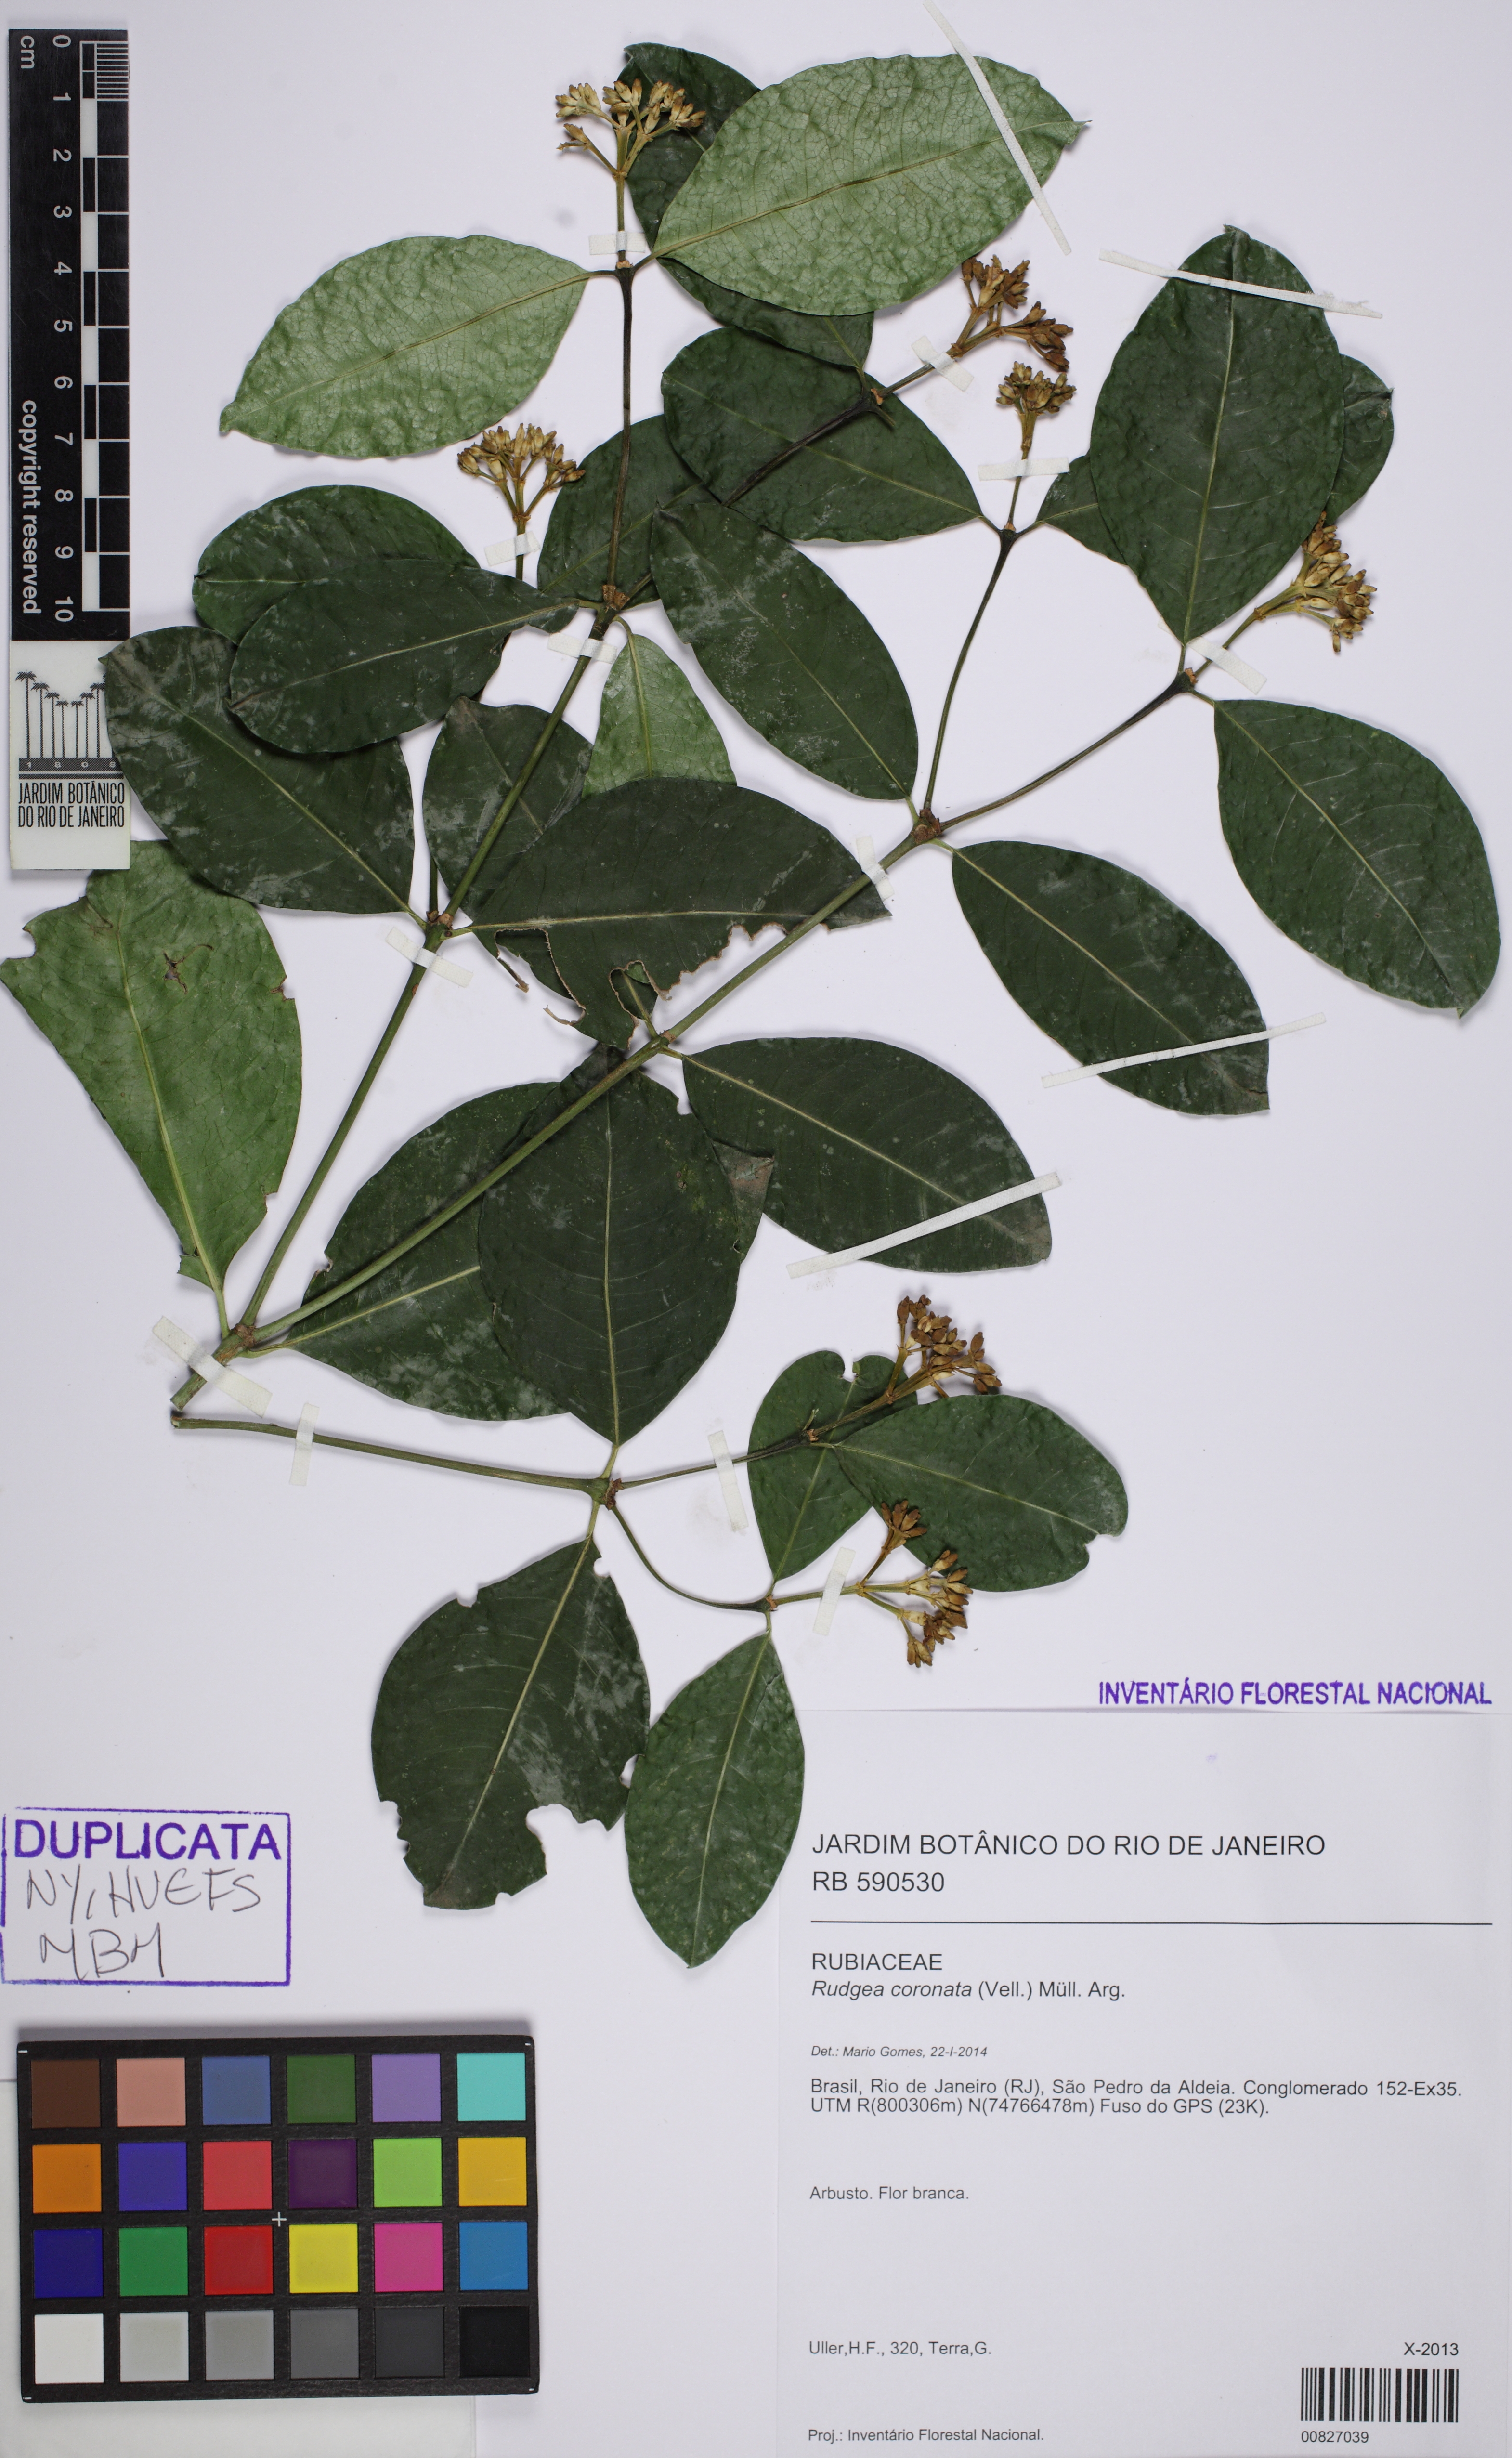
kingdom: Plantae
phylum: Tracheophyta
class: Magnoliopsida
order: Gentianales
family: Rubiaceae
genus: Rudgea
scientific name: Rudgea coronata
